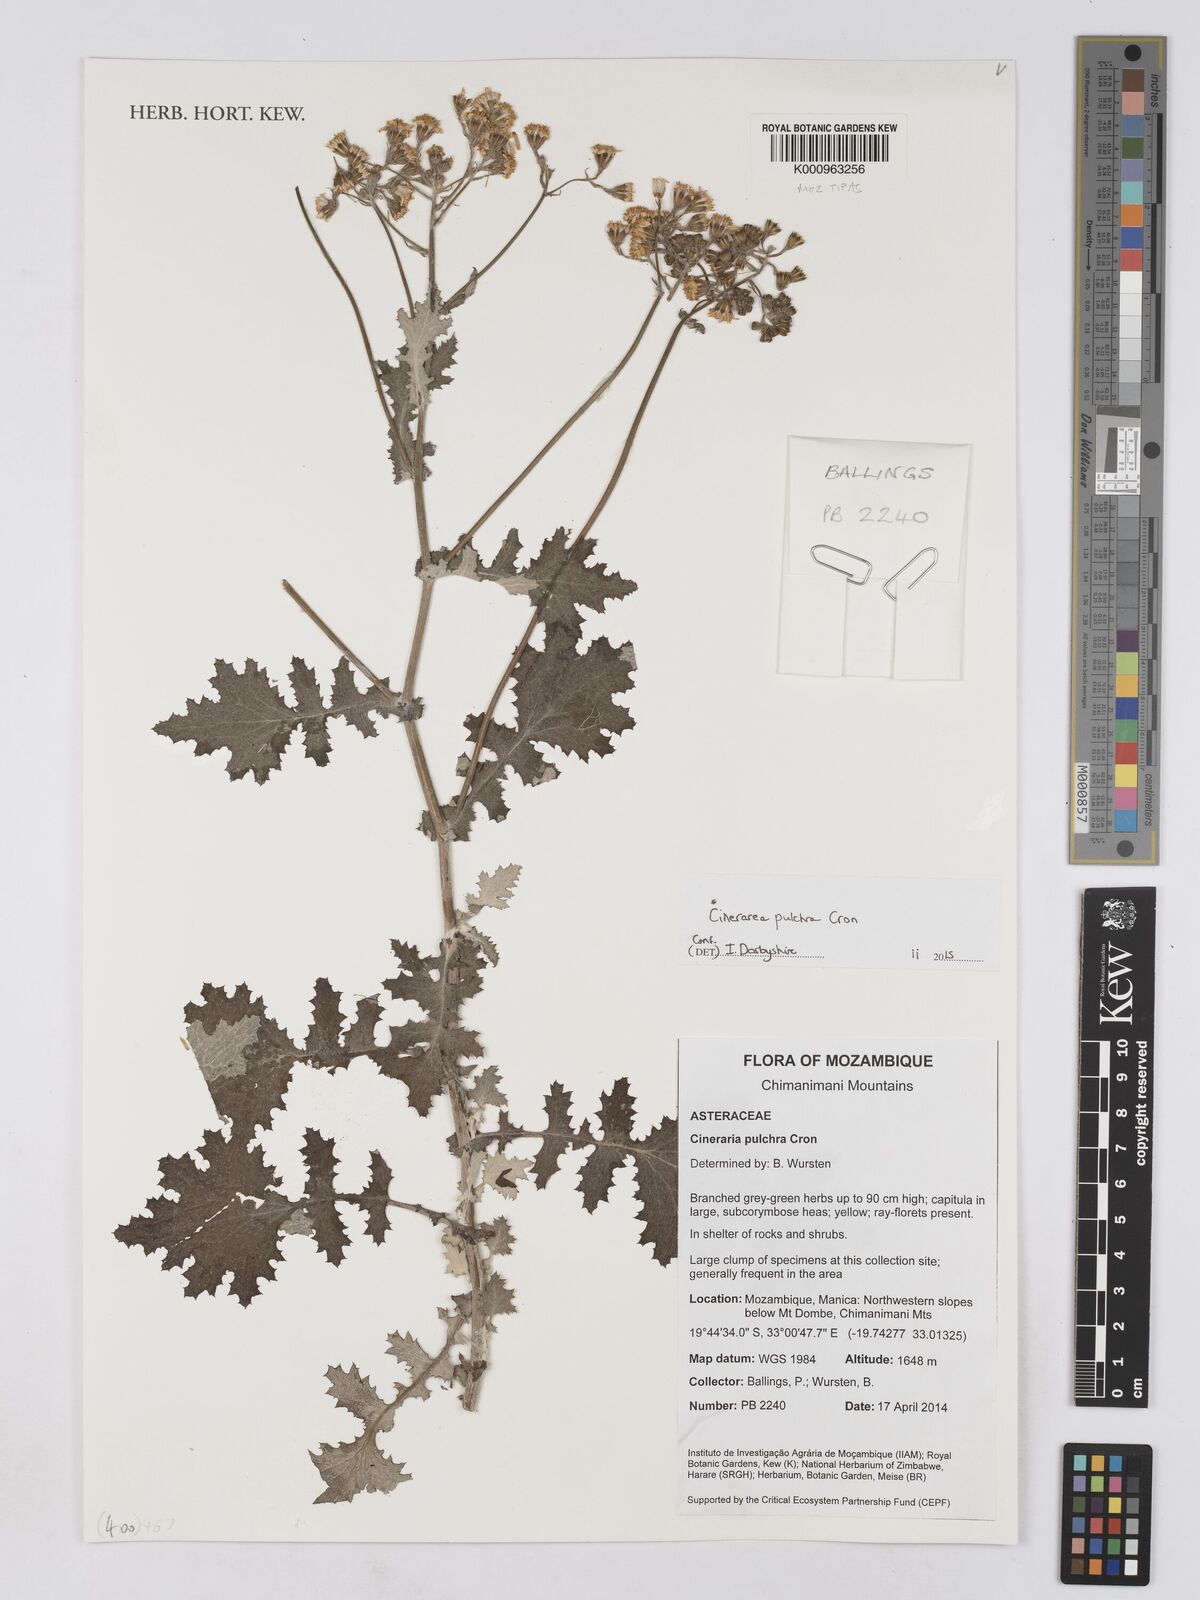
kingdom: Plantae
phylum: Tracheophyta
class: Magnoliopsida
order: Asterales
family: Asteraceae
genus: Cineraria
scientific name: Cineraria pulchra
